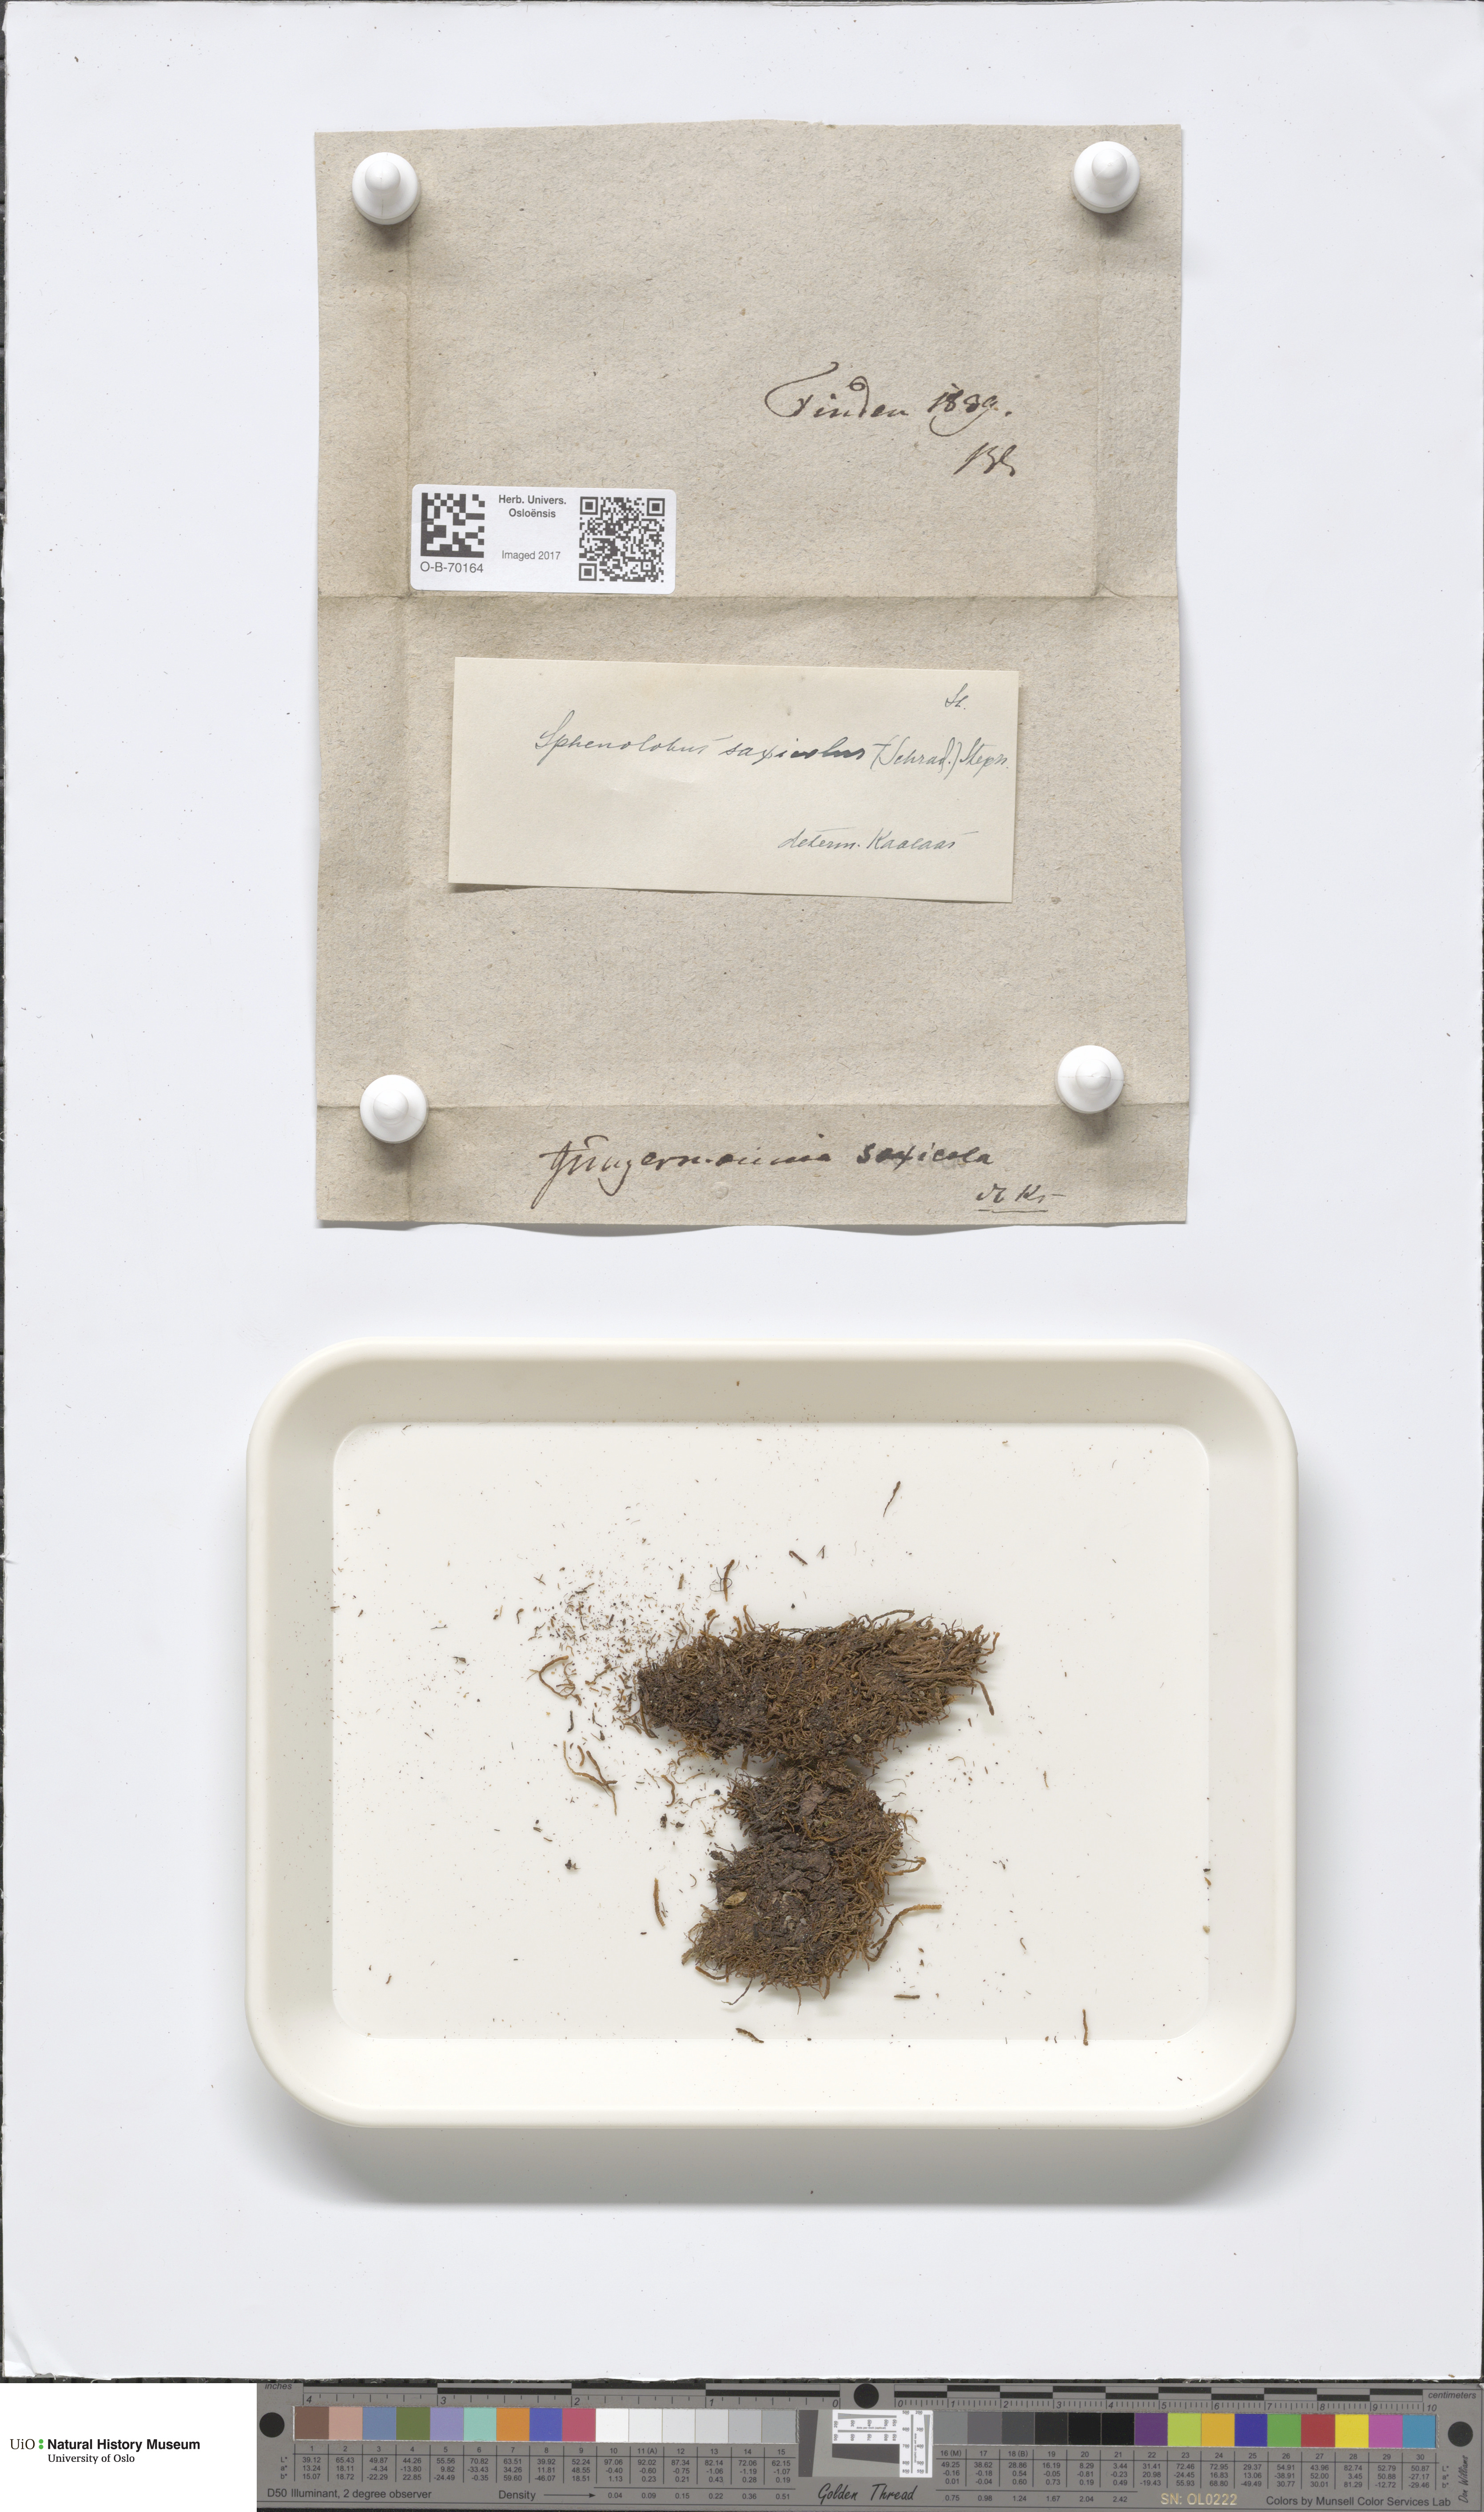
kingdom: Plantae
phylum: Marchantiophyta
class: Jungermanniopsida
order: Jungermanniales
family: Anastrophyllaceae
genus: Sphenolobus
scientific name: Sphenolobus saxicola
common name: Curled notchwort
